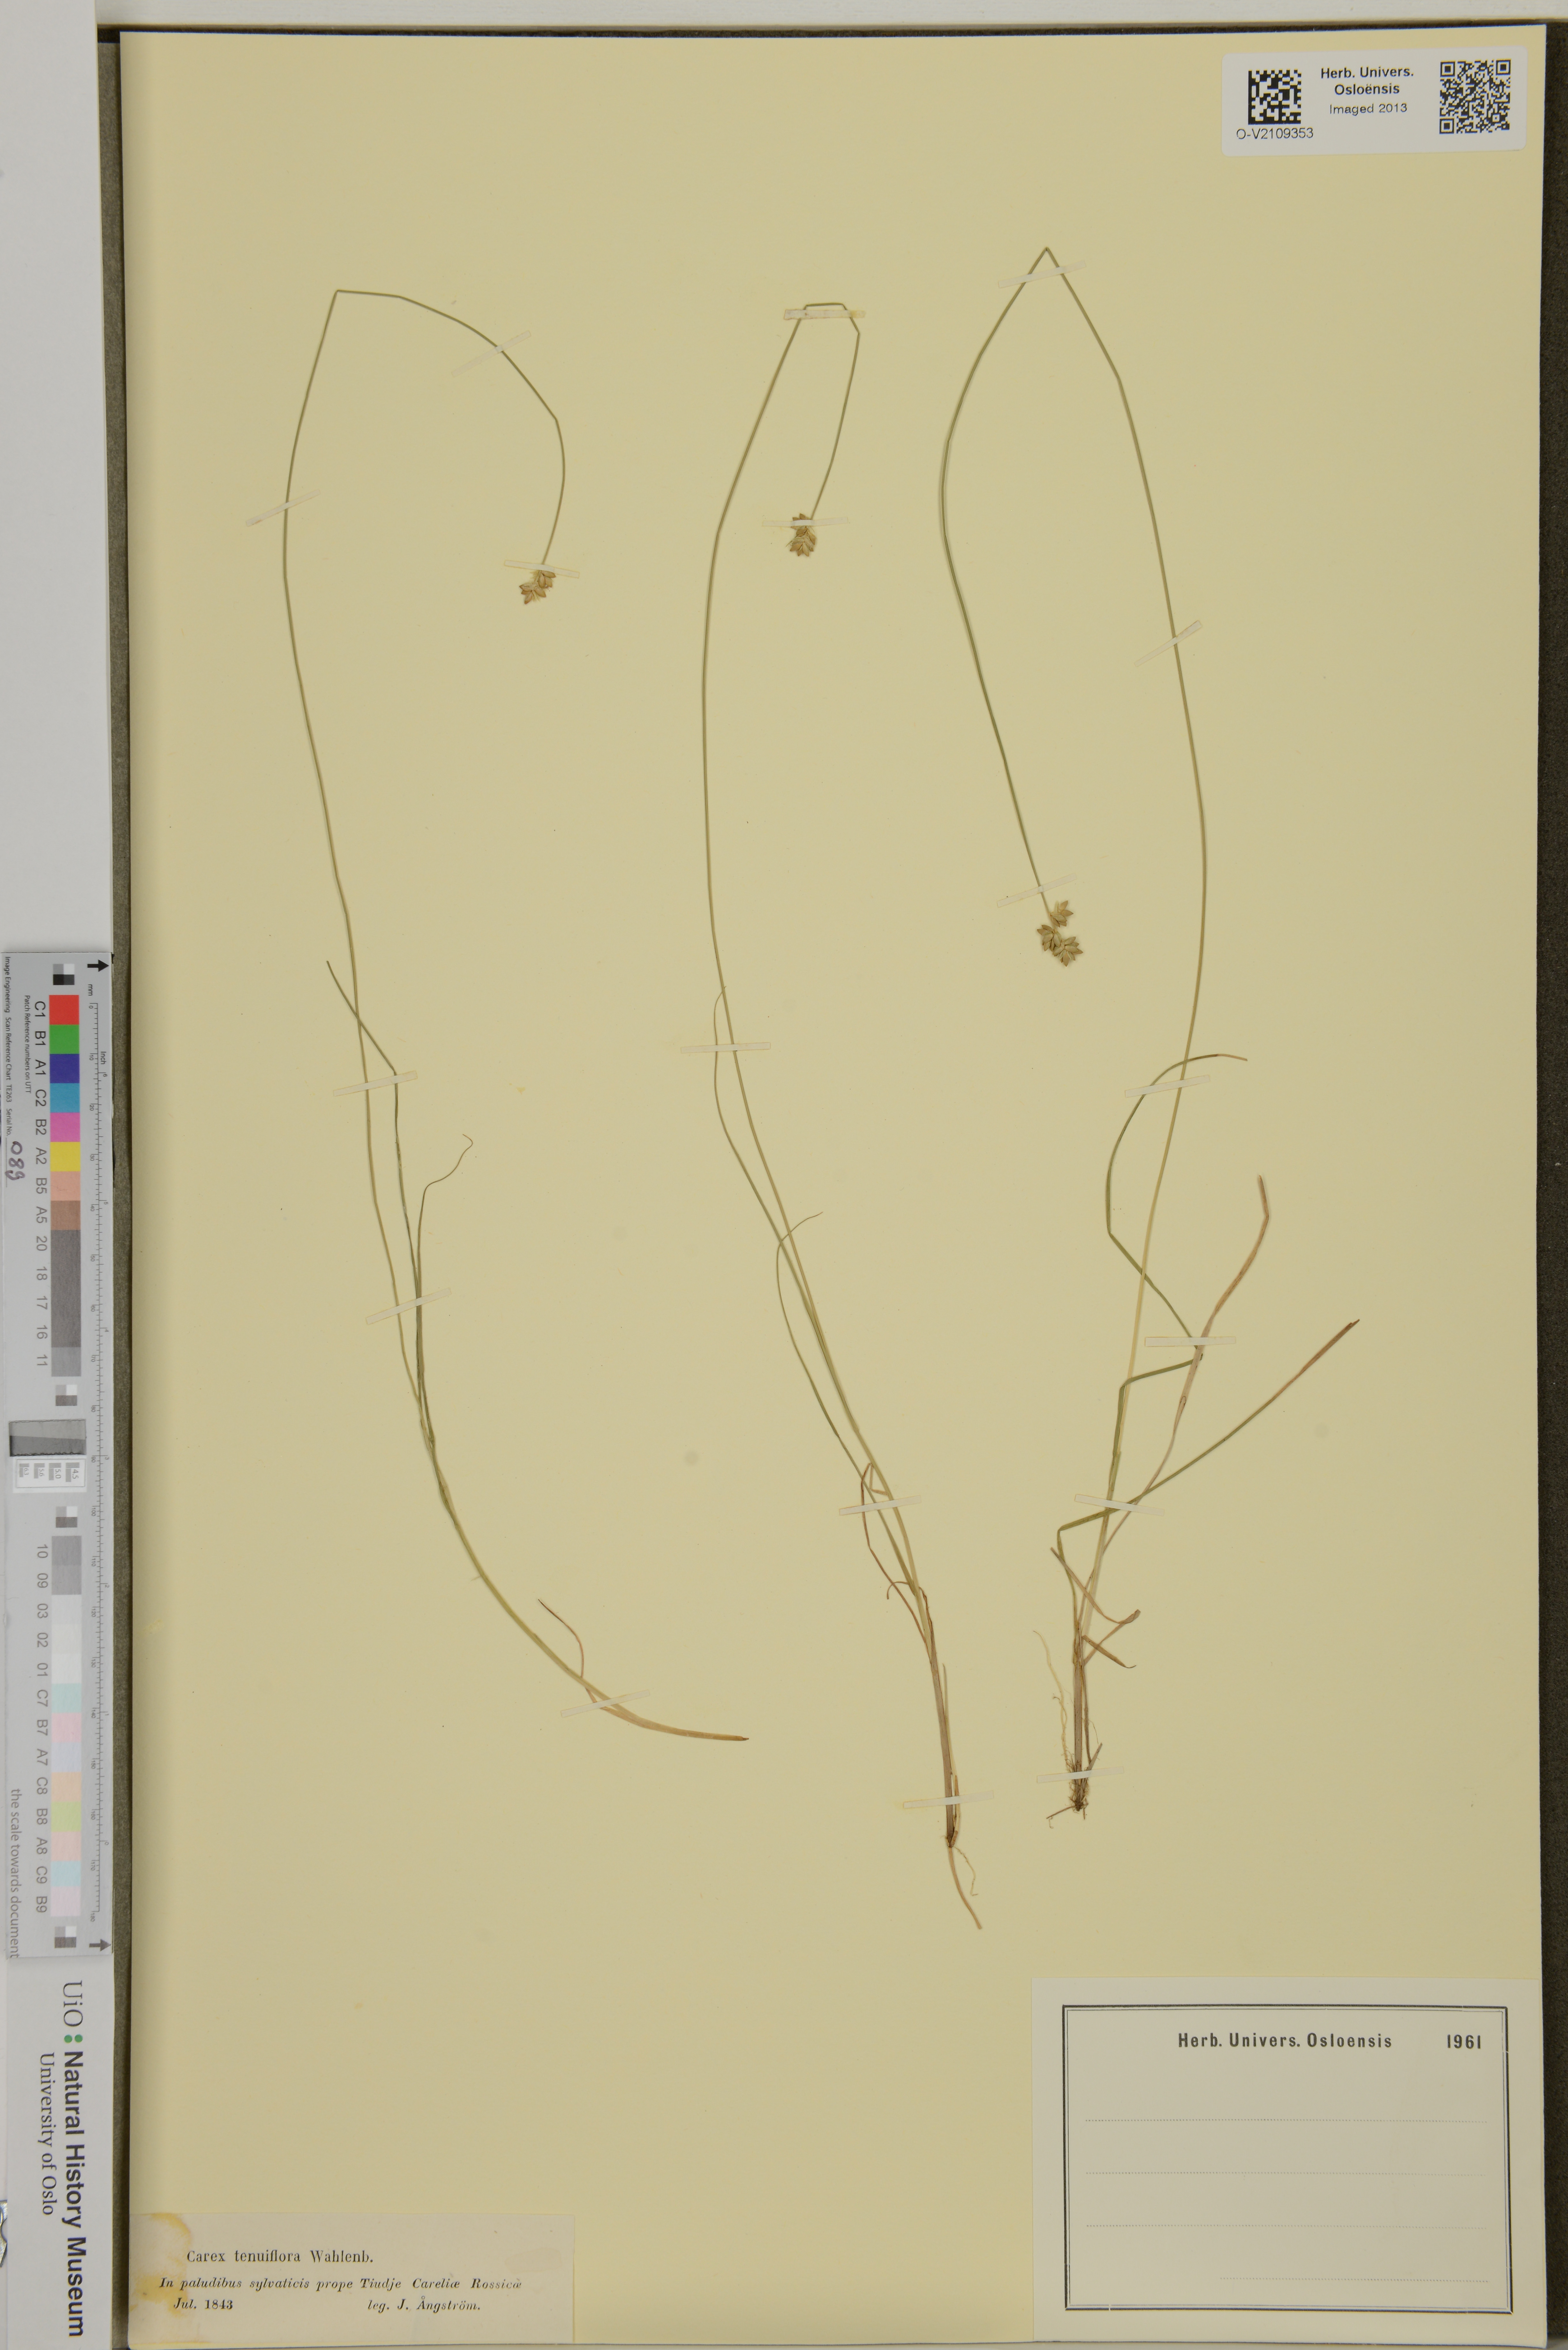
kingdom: Plantae
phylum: Tracheophyta
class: Liliopsida
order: Poales
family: Cyperaceae
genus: Carex
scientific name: Carex tenuiflora
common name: Sparse-flowered sedge
